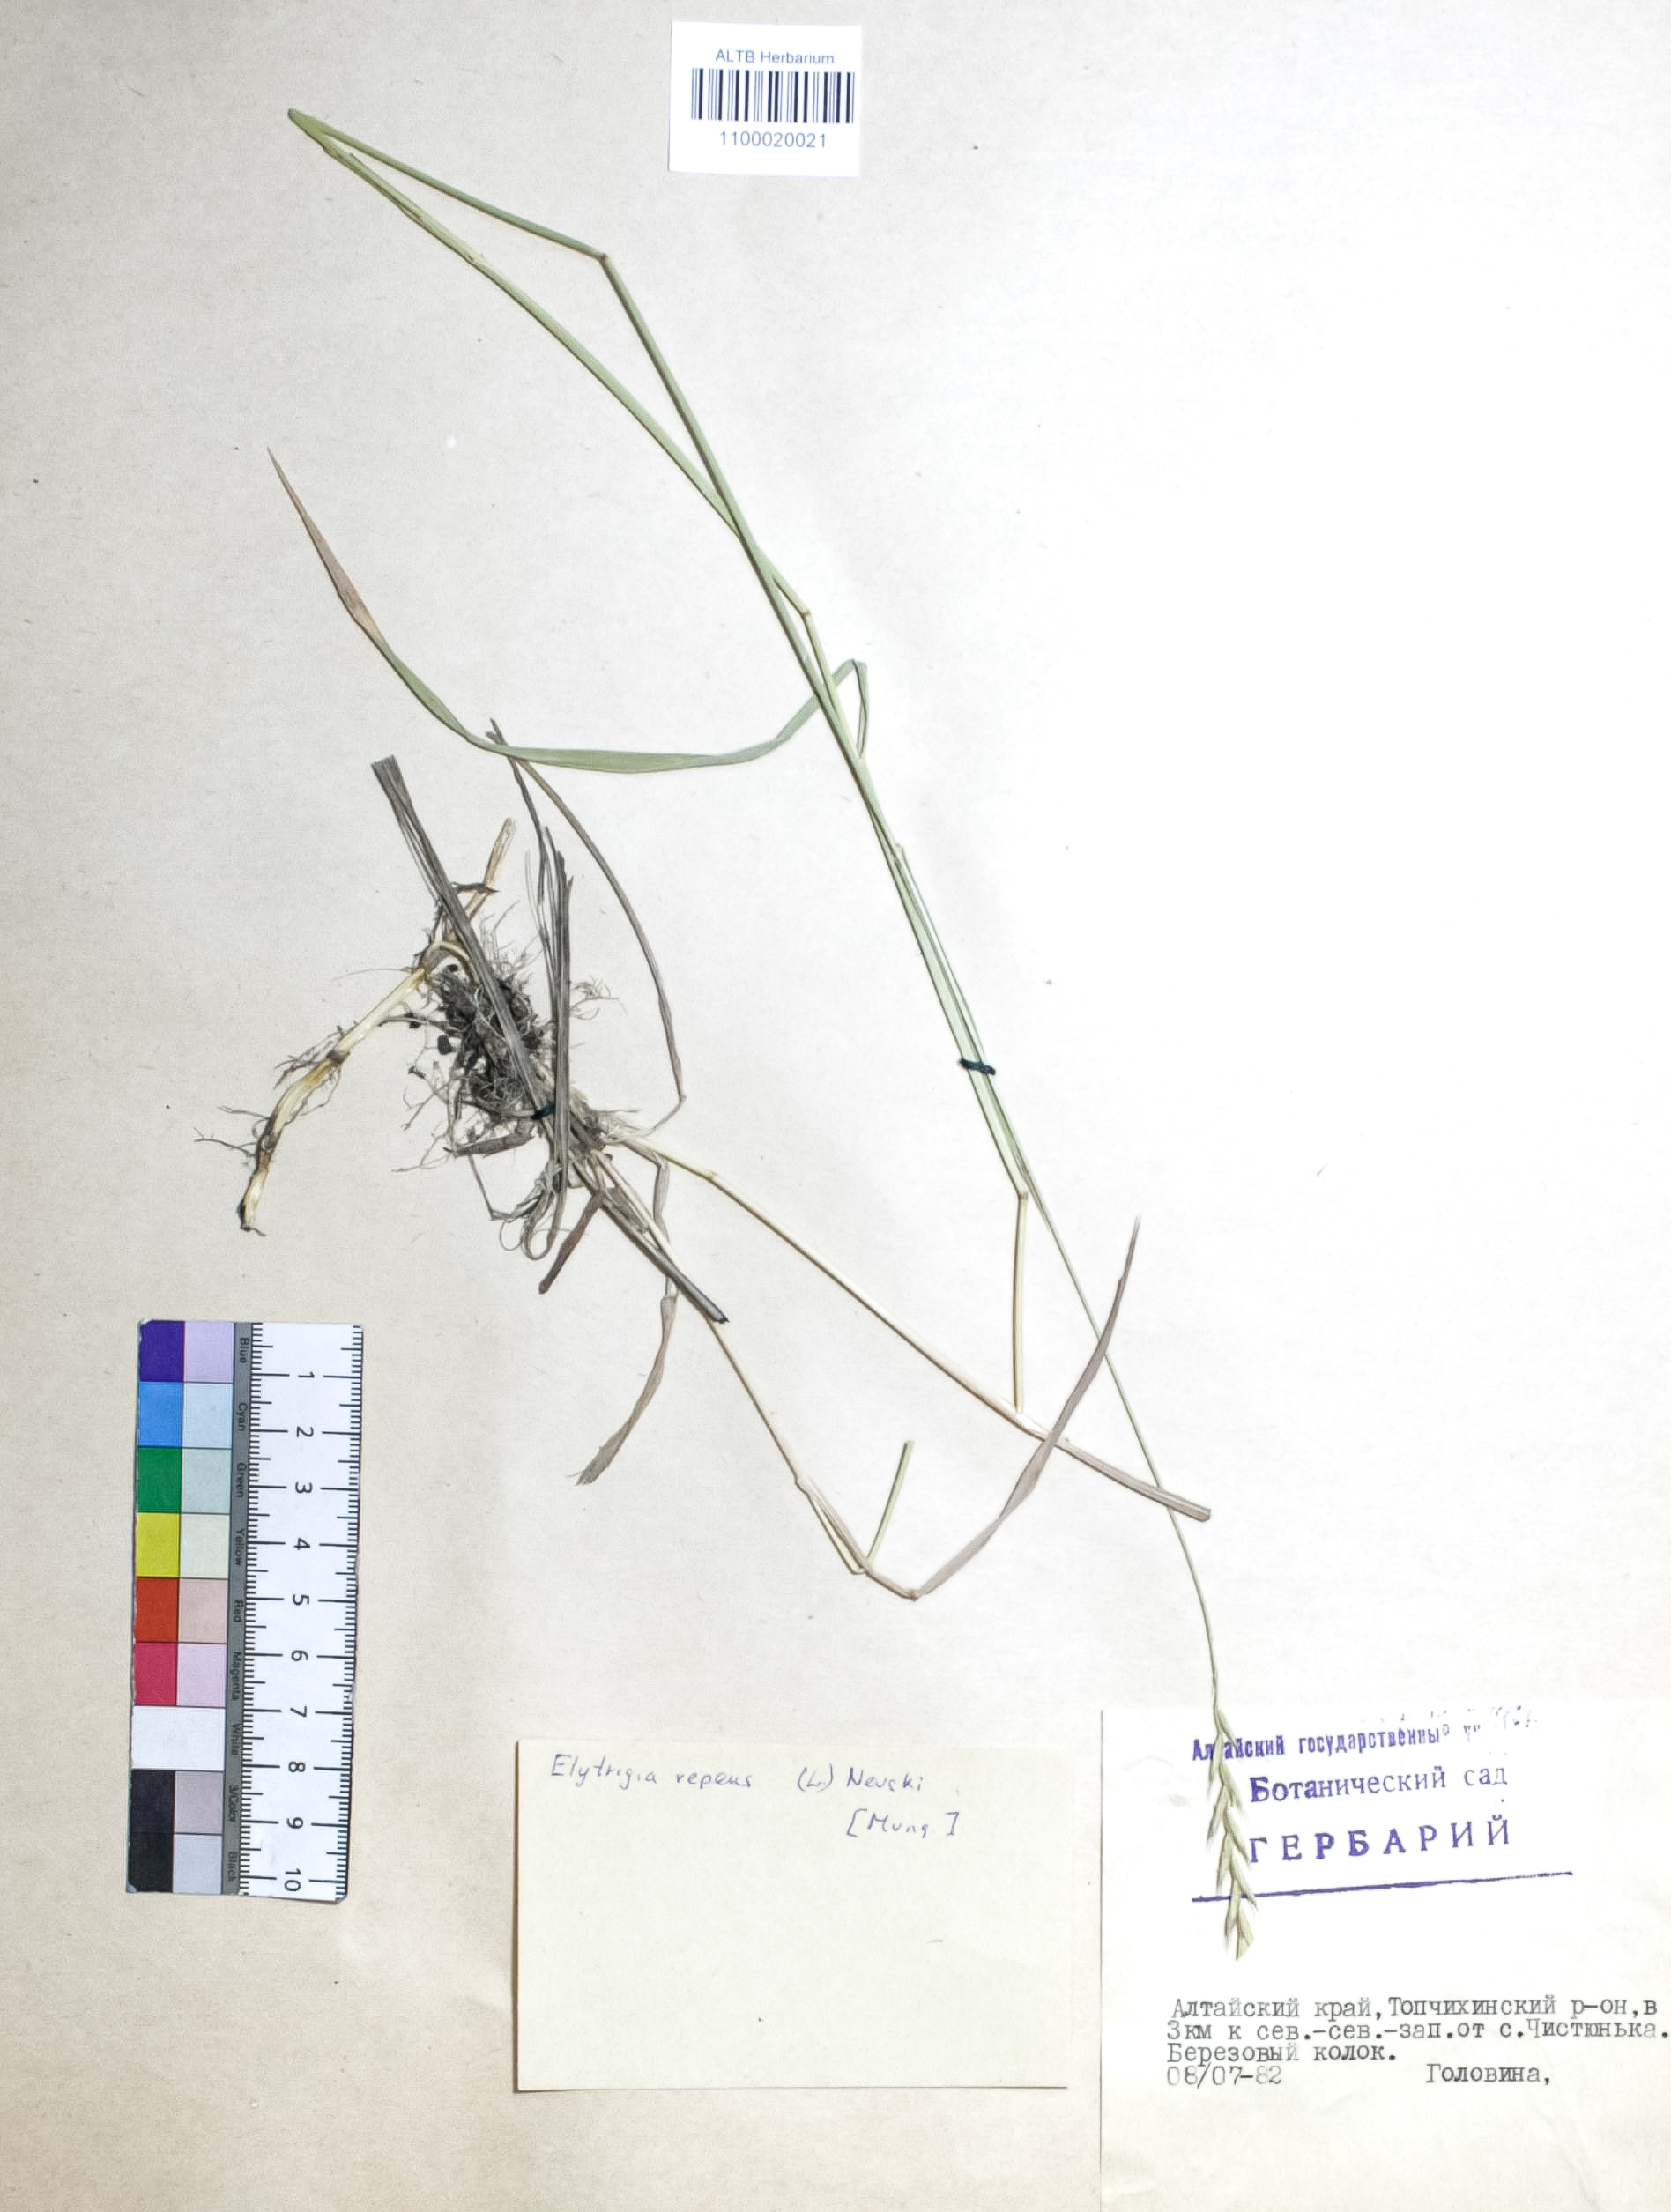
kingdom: Plantae
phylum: Tracheophyta
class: Liliopsida
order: Poales
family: Poaceae
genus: Elymus
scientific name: Elymus repens
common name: Quackgrass
